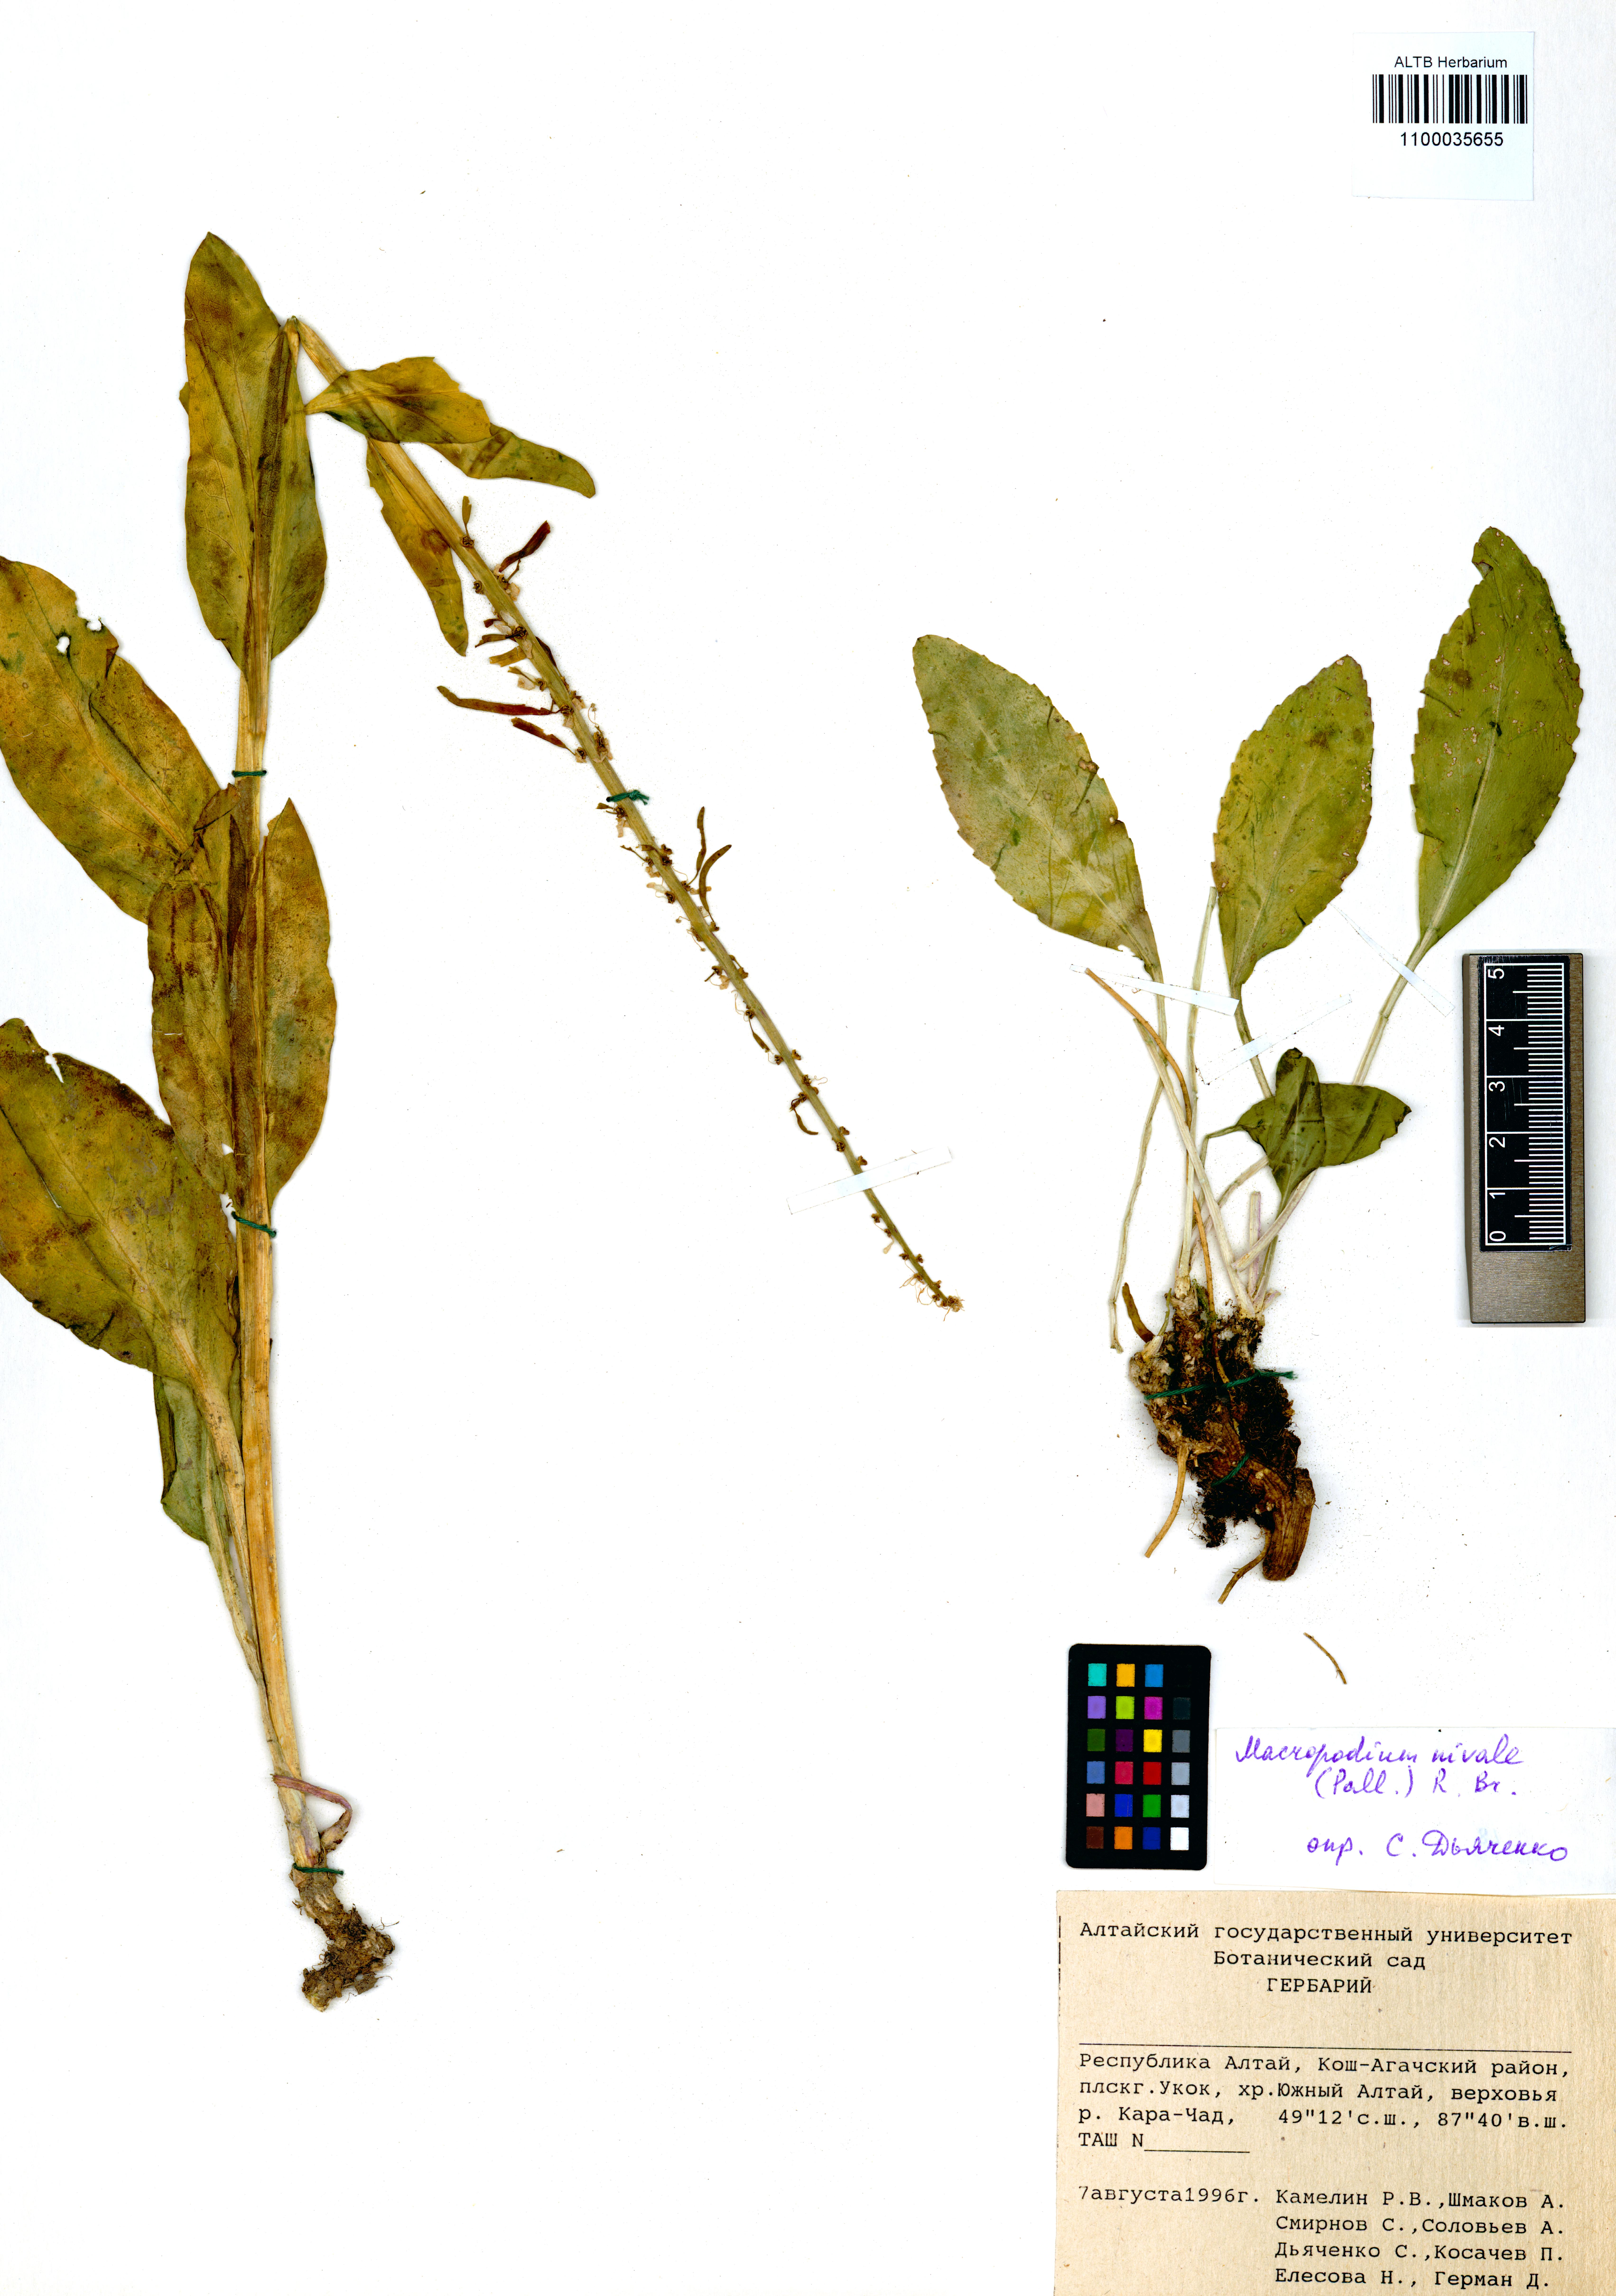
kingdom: Plantae
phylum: Tracheophyta
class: Magnoliopsida
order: Brassicales
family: Brassicaceae
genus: Macropodium
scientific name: Macropodium nivale
